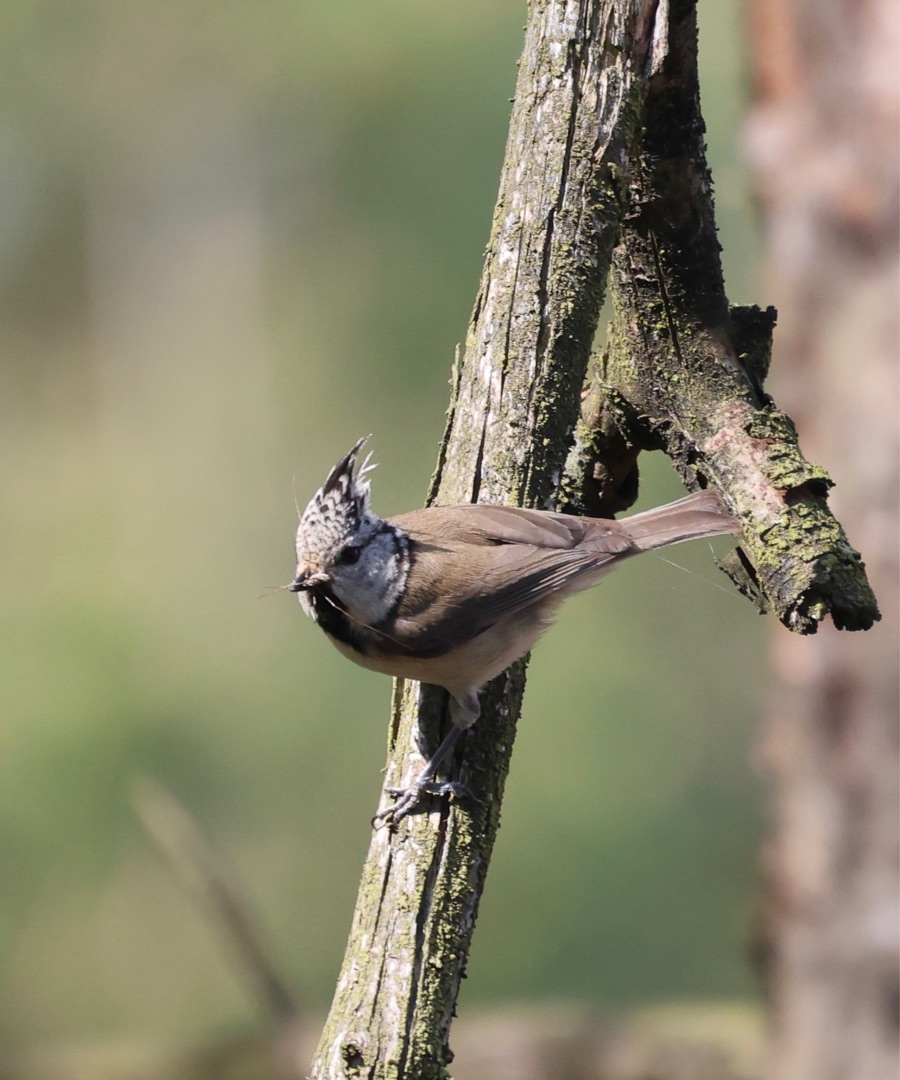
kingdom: Animalia
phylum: Chordata
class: Aves
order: Passeriformes
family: Paridae
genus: Lophophanes
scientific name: Lophophanes cristatus
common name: Topmejse
